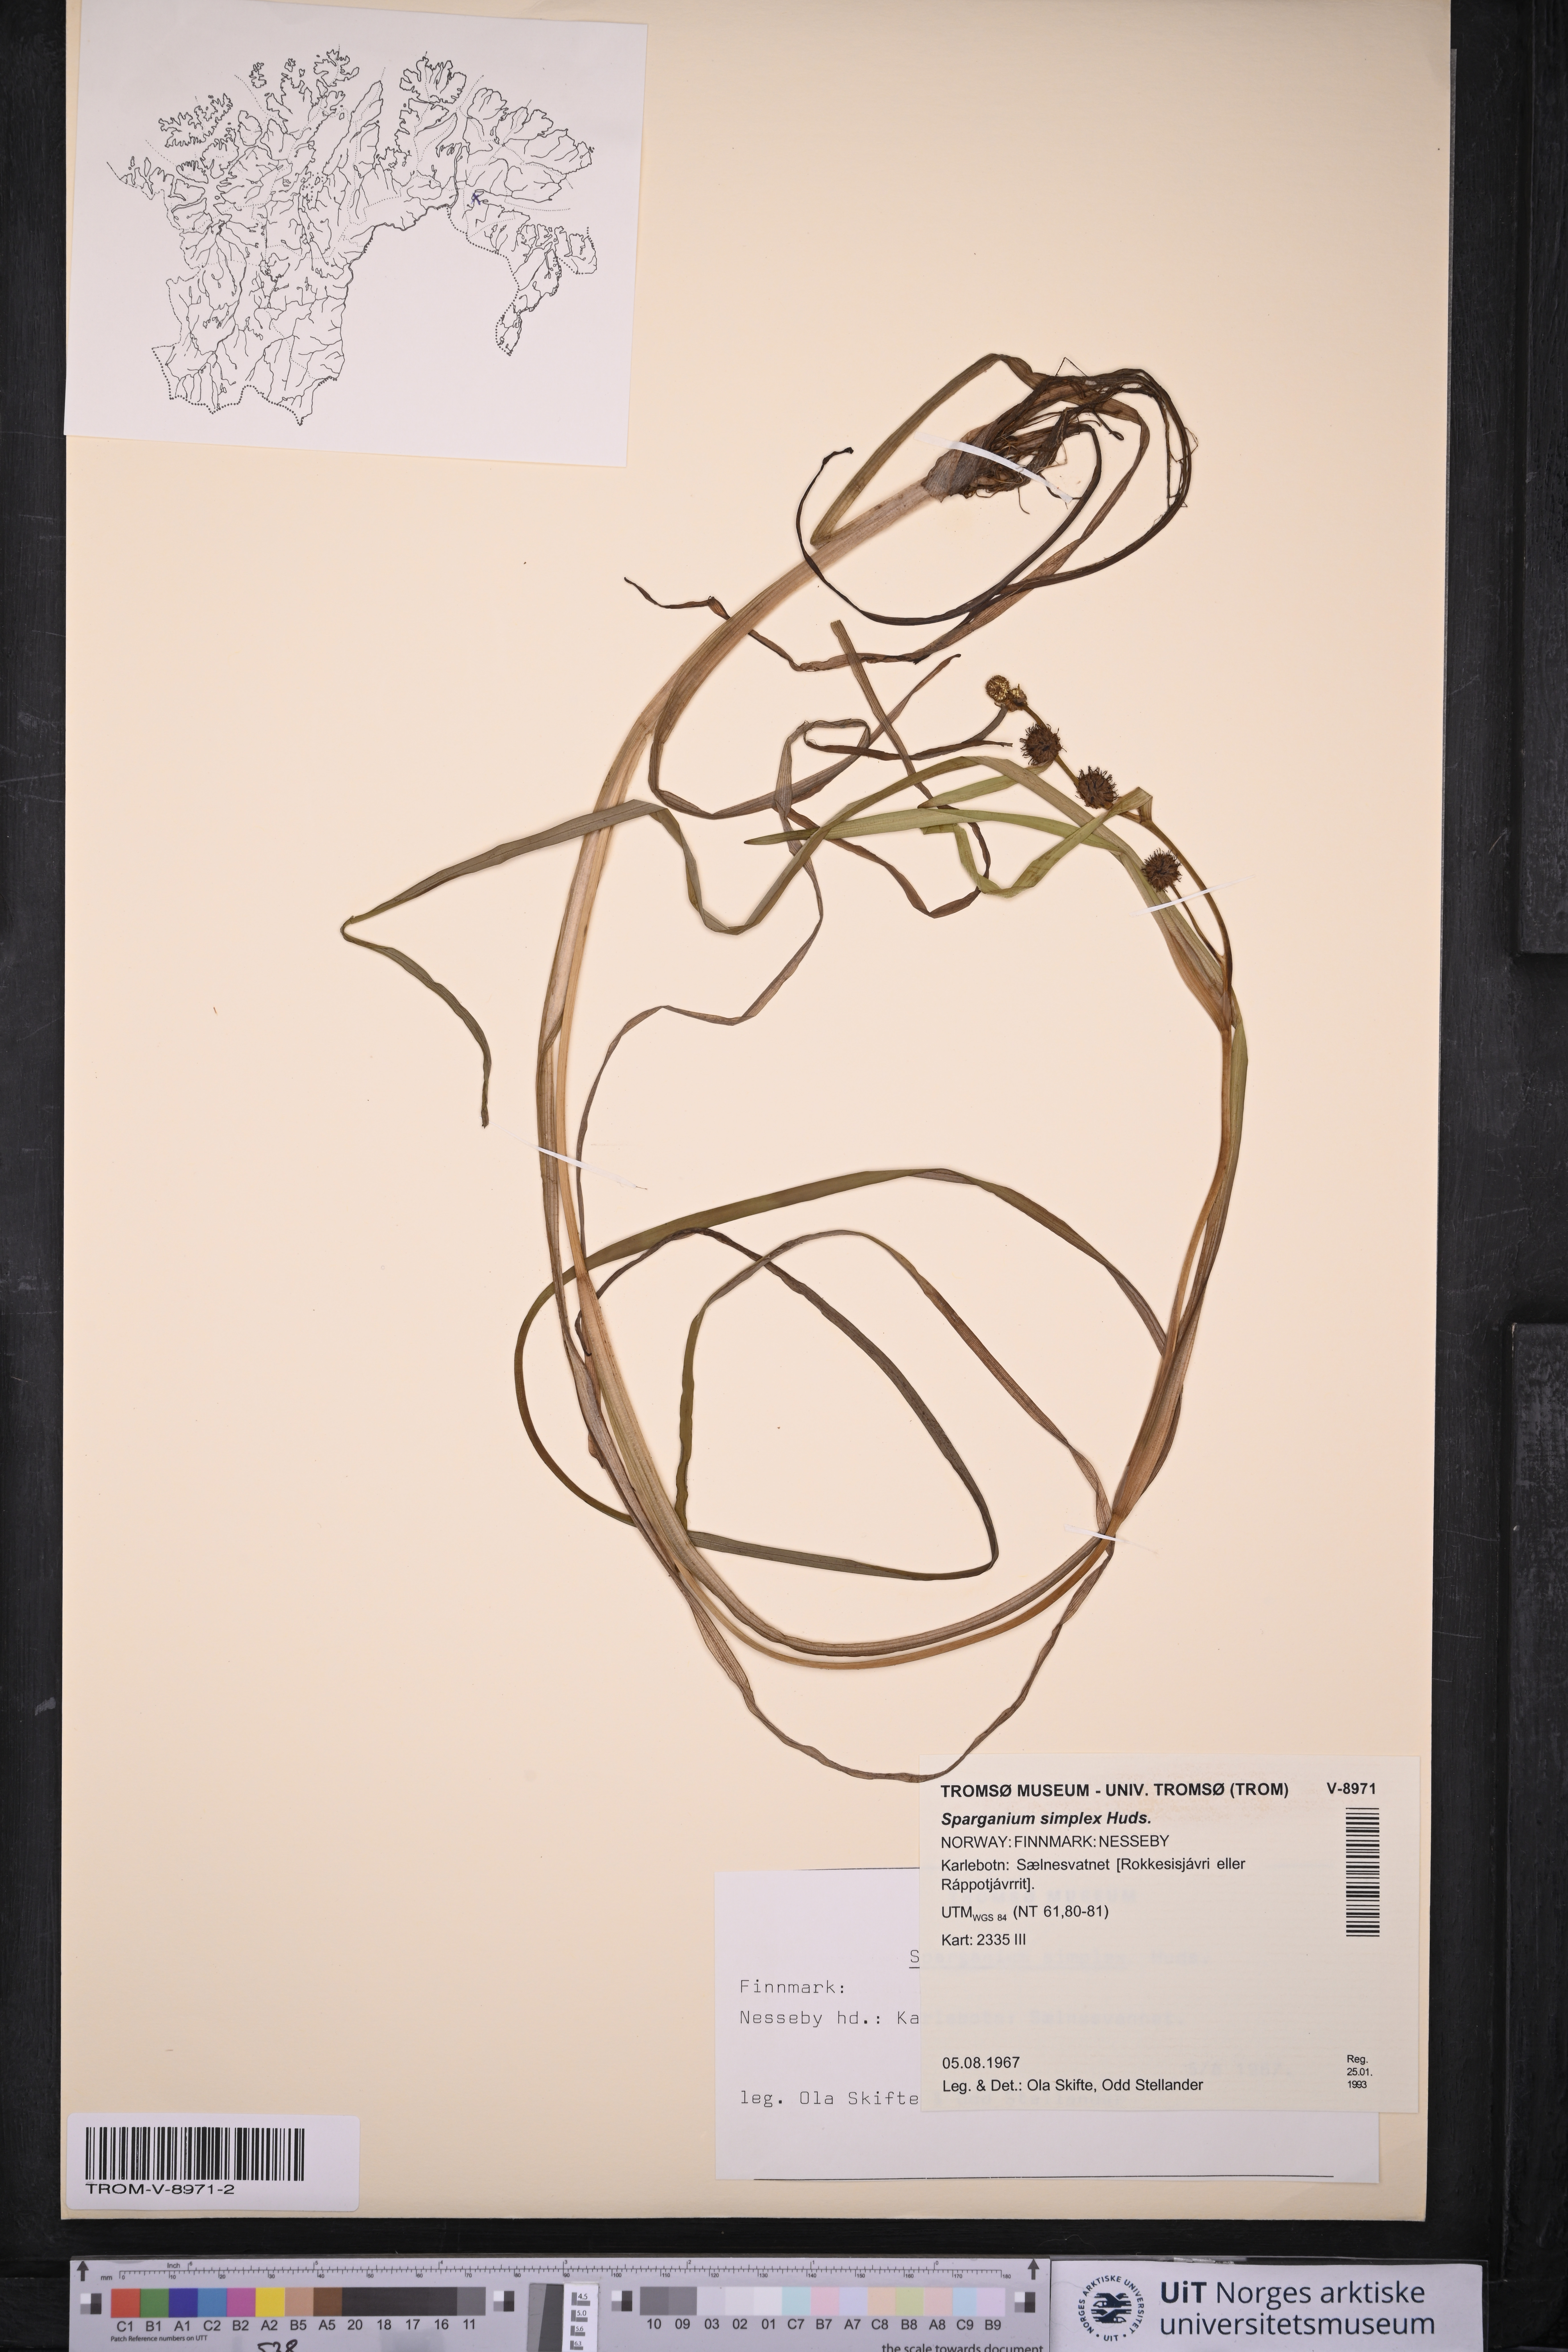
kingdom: Plantae
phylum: Tracheophyta
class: Liliopsida
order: Poales
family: Typhaceae
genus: Sparganium
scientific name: Sparganium emersum
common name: Unbranched bur-reed
